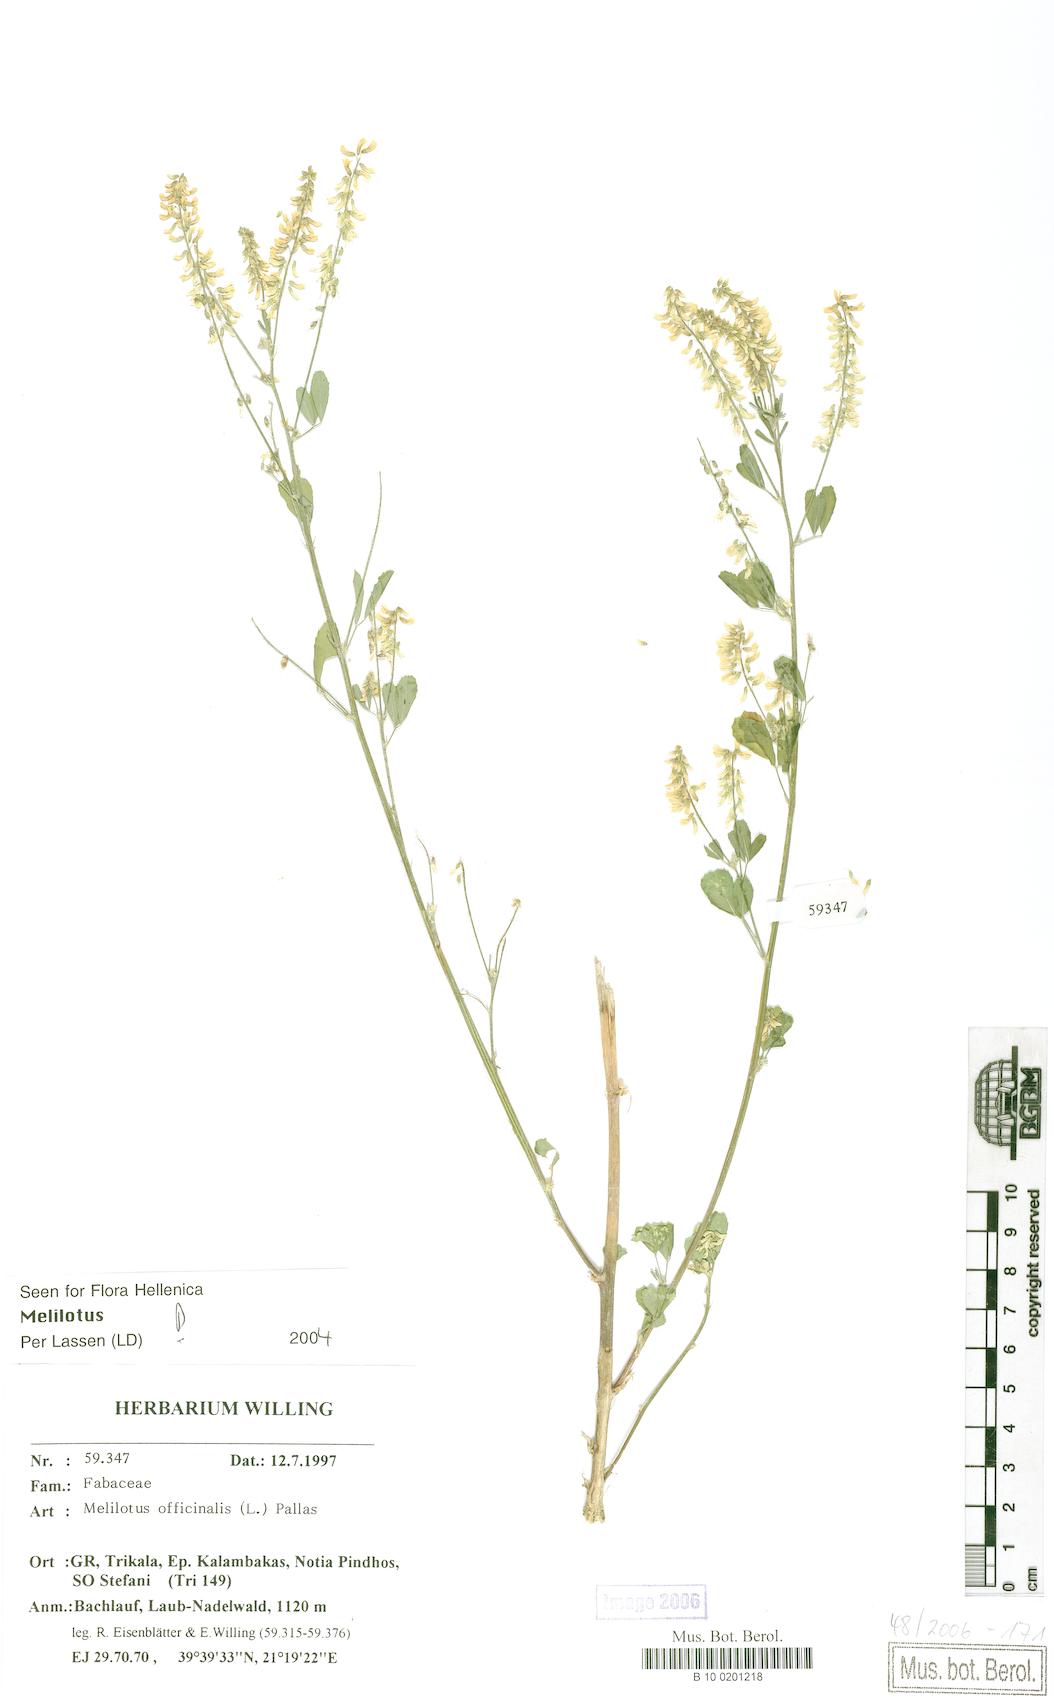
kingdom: Plantae
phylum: Tracheophyta
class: Magnoliopsida
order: Fabales
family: Fabaceae
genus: Melilotus
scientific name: Melilotus officinalis
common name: Sweetclover
